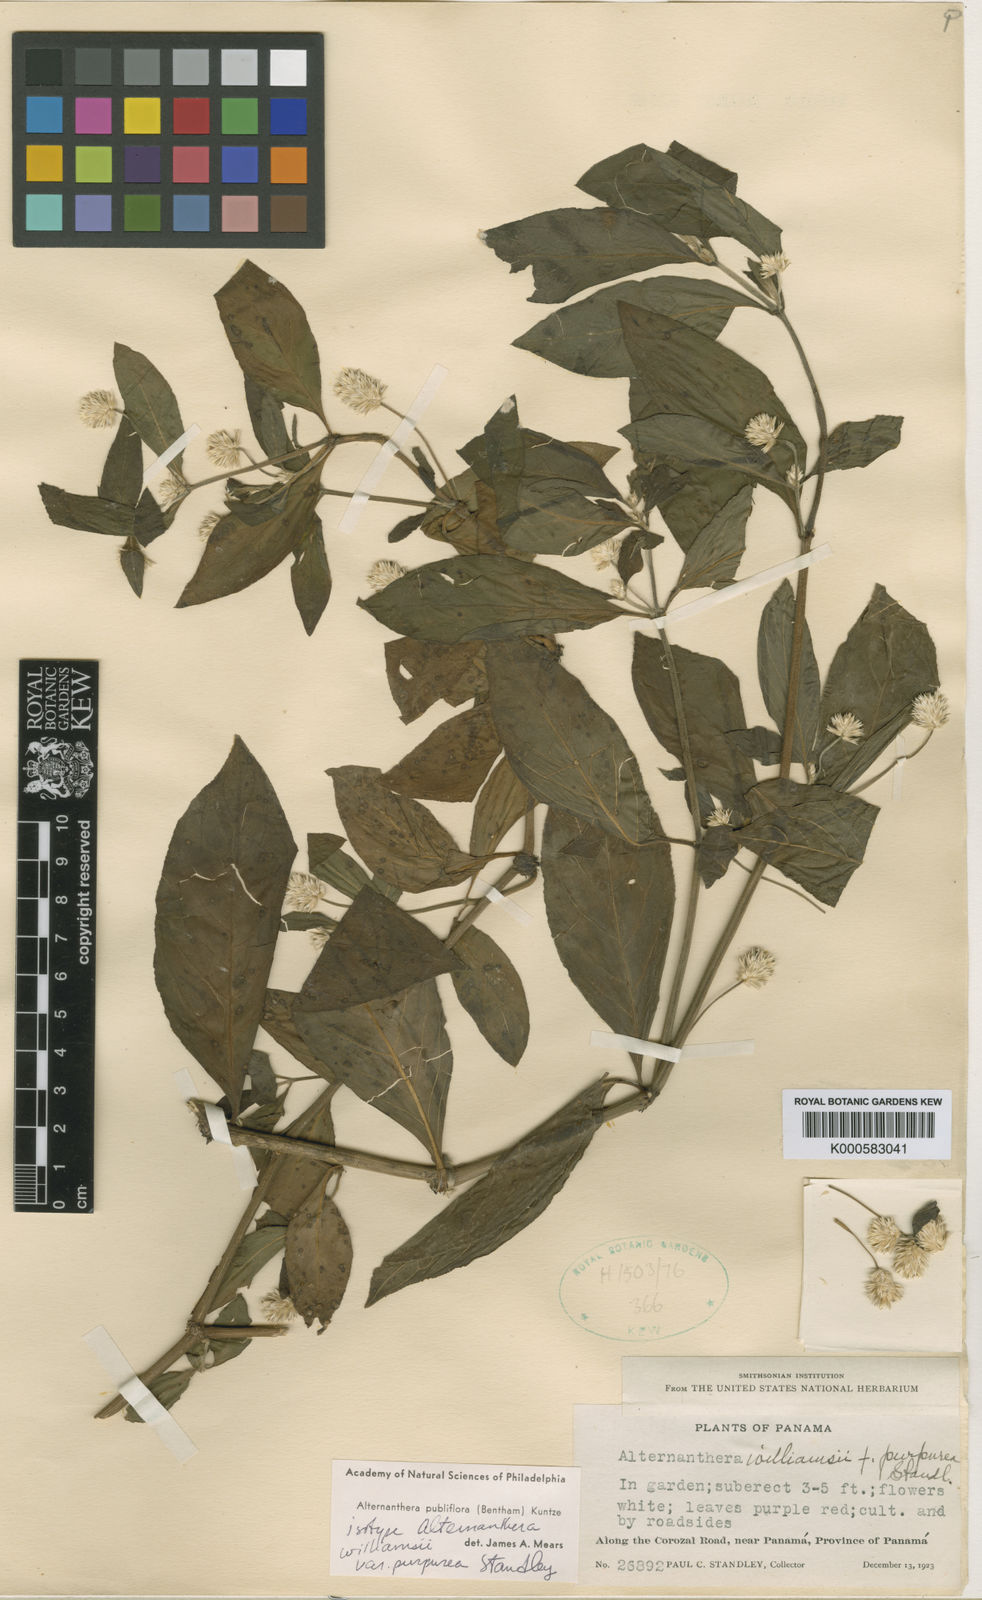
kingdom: Plantae
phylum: Tracheophyta
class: Magnoliopsida
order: Caryophyllales
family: Amaranthaceae
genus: Alternanthera
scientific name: Alternanthera pubiflora
